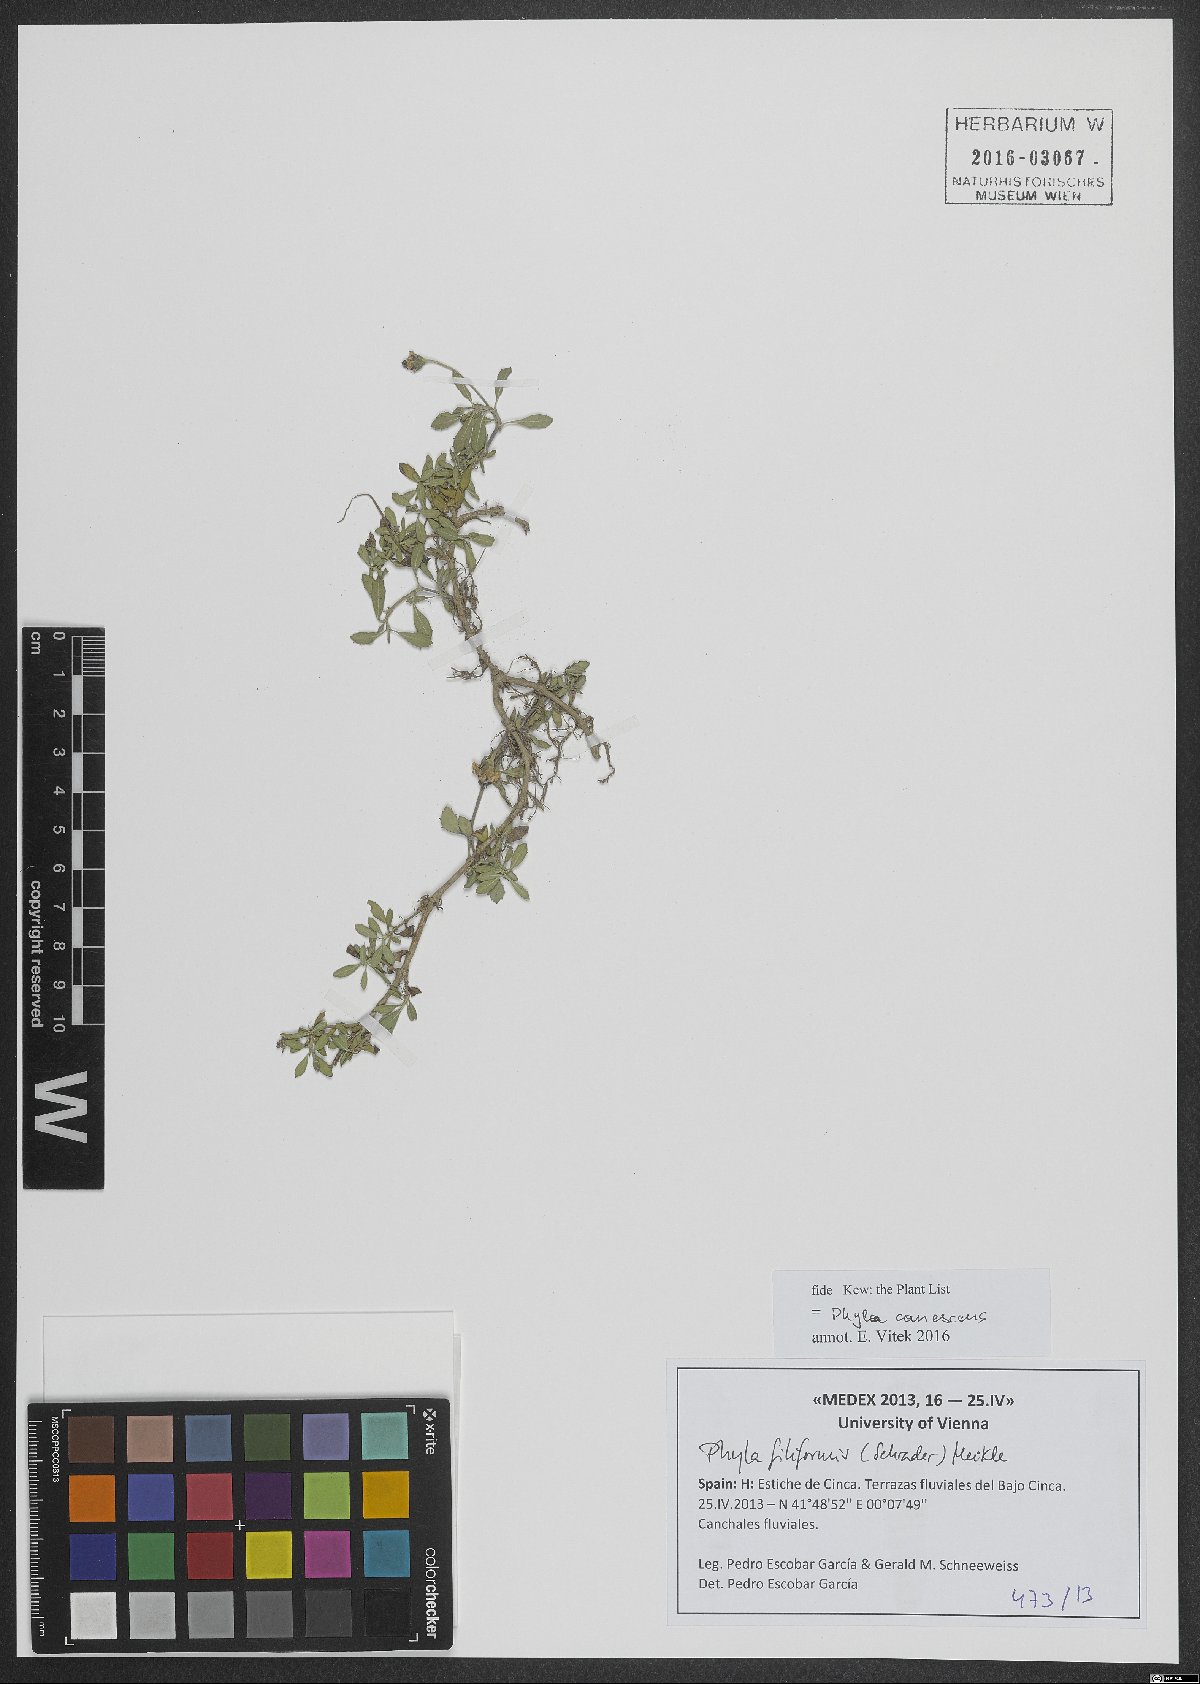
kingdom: Plantae
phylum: Tracheophyta
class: Magnoliopsida
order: Lamiales
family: Verbenaceae
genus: Phyla
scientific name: Phyla nodiflora
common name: Frogfruit
